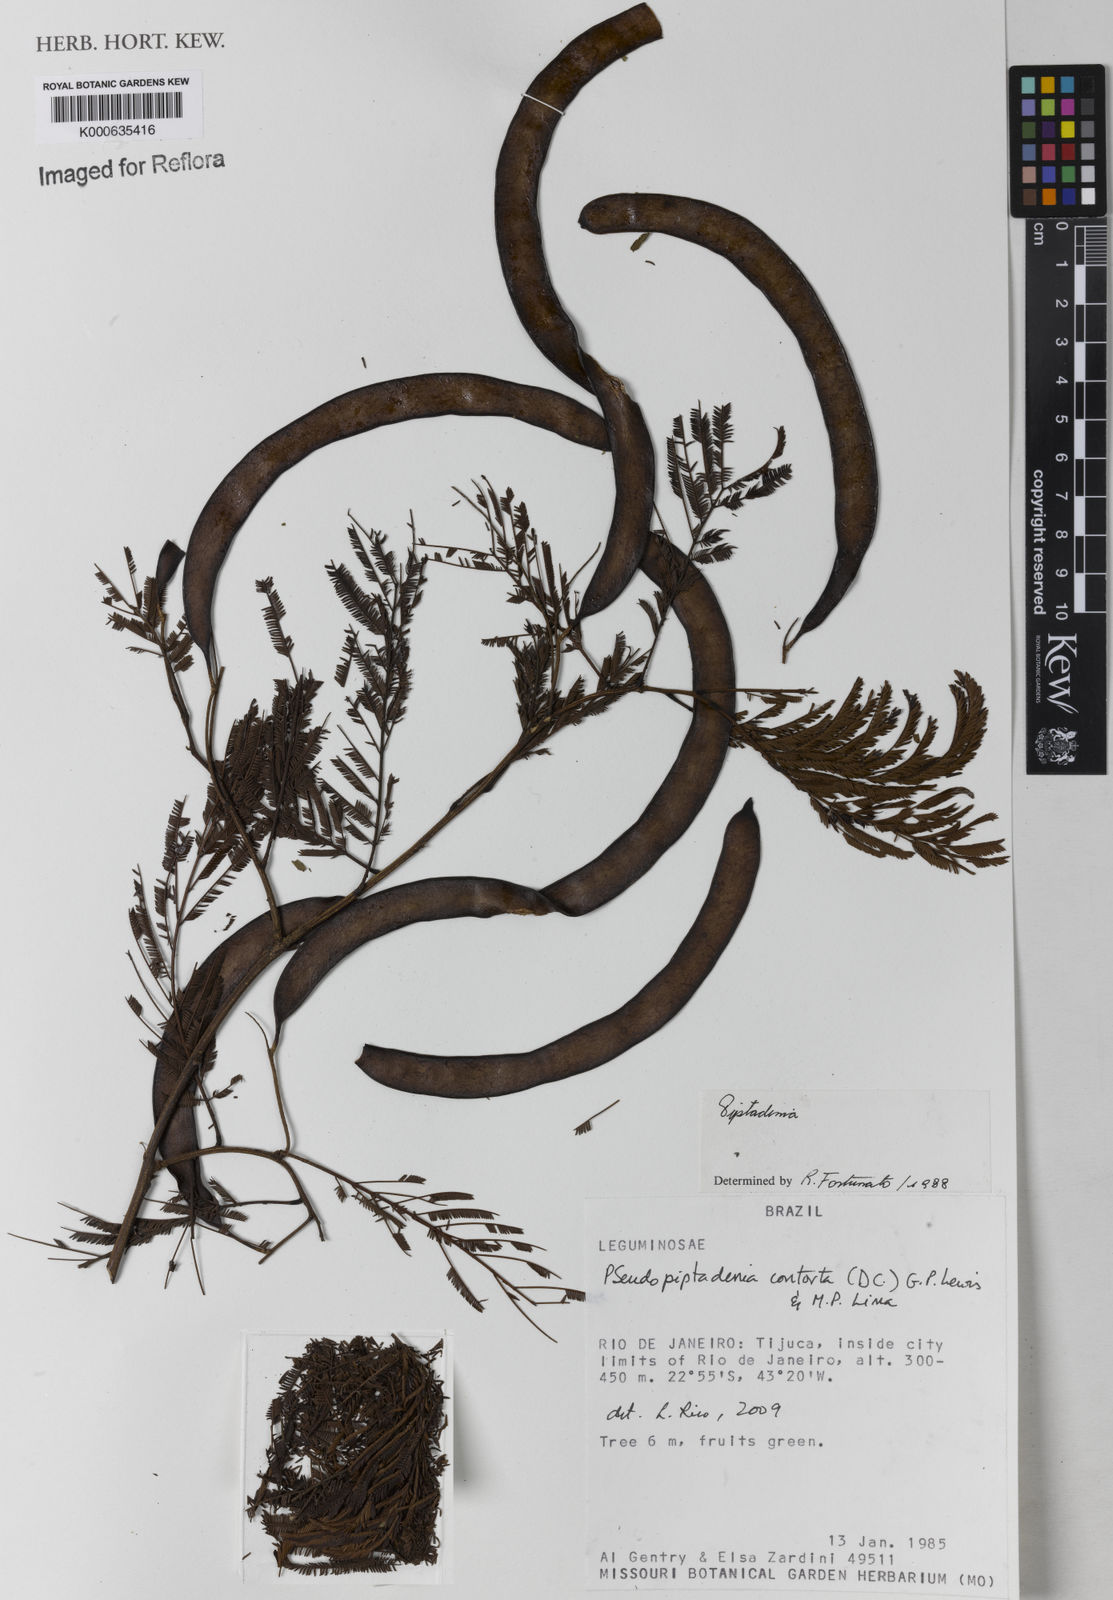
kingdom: Plantae
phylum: Tracheophyta
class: Magnoliopsida
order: Fabales
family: Fabaceae
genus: Pseudopiptadenia
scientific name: Pseudopiptadenia contorta
